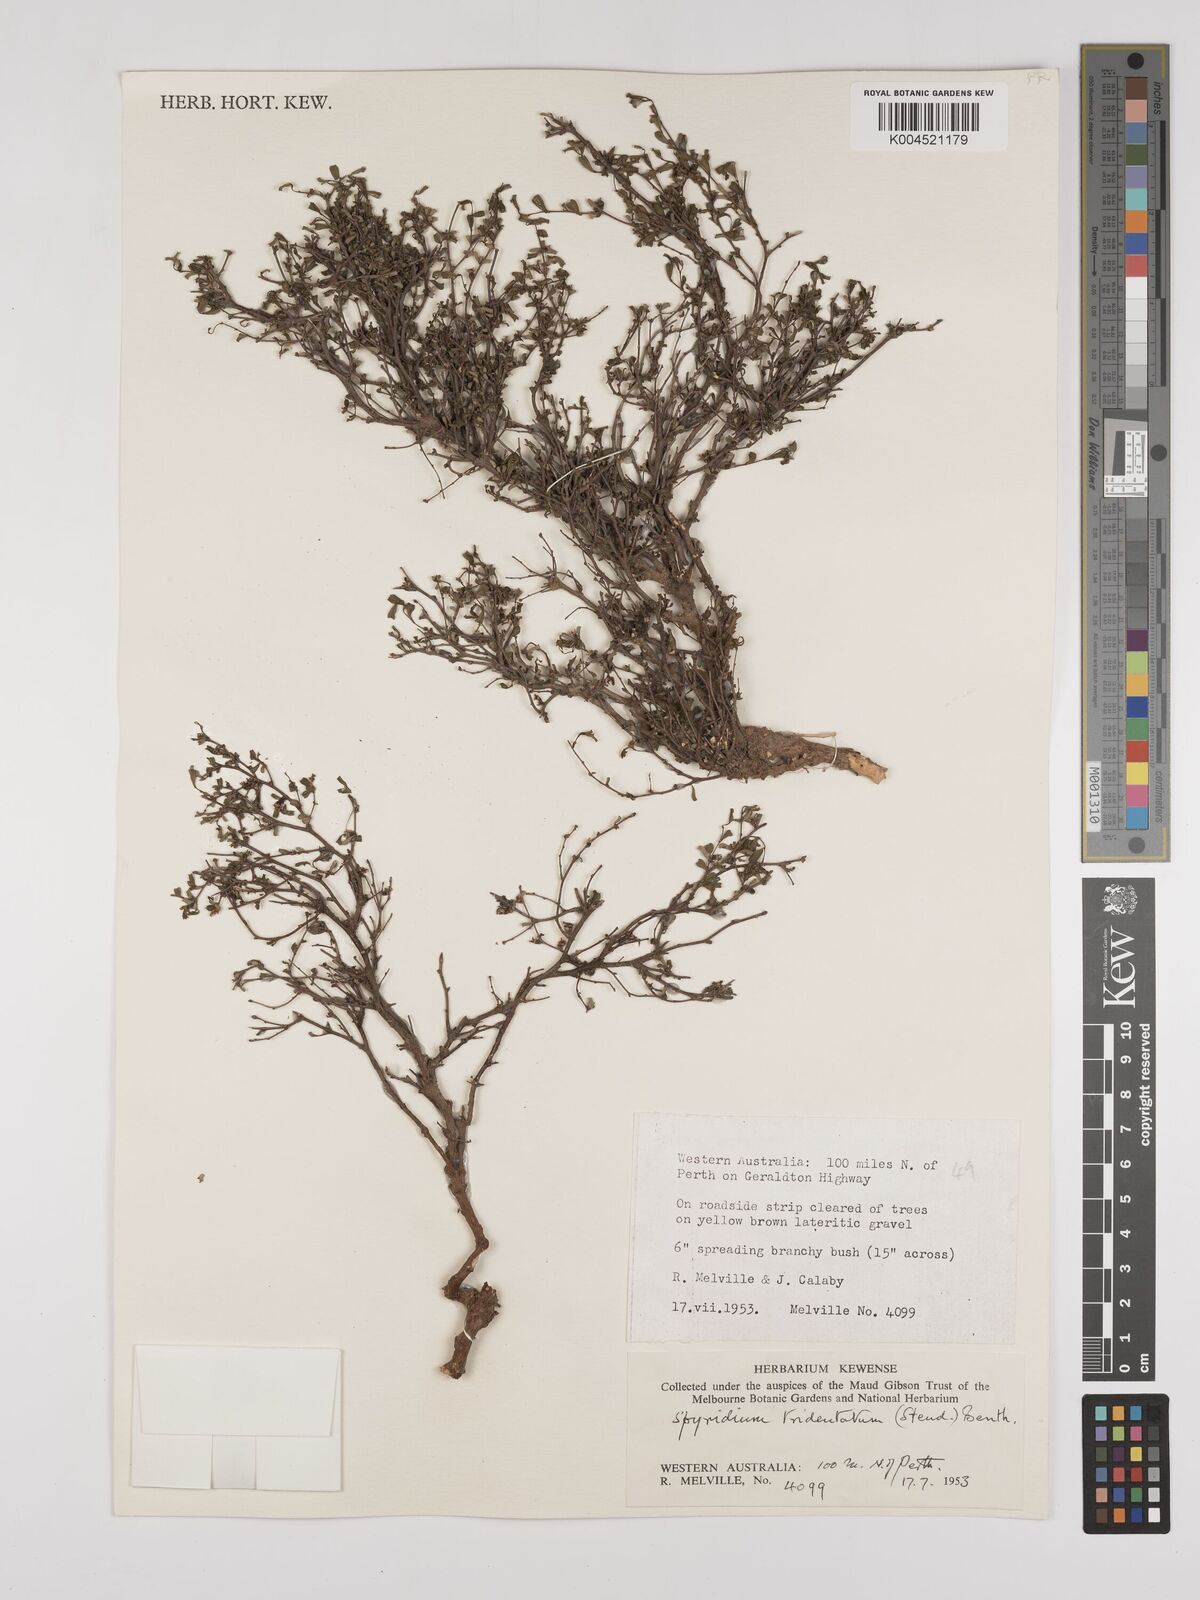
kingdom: Plantae
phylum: Tracheophyta
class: Magnoliopsida
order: Rosales
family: Rhamnaceae
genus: Stenanthemum
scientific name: Stenanthemum tridentatum
